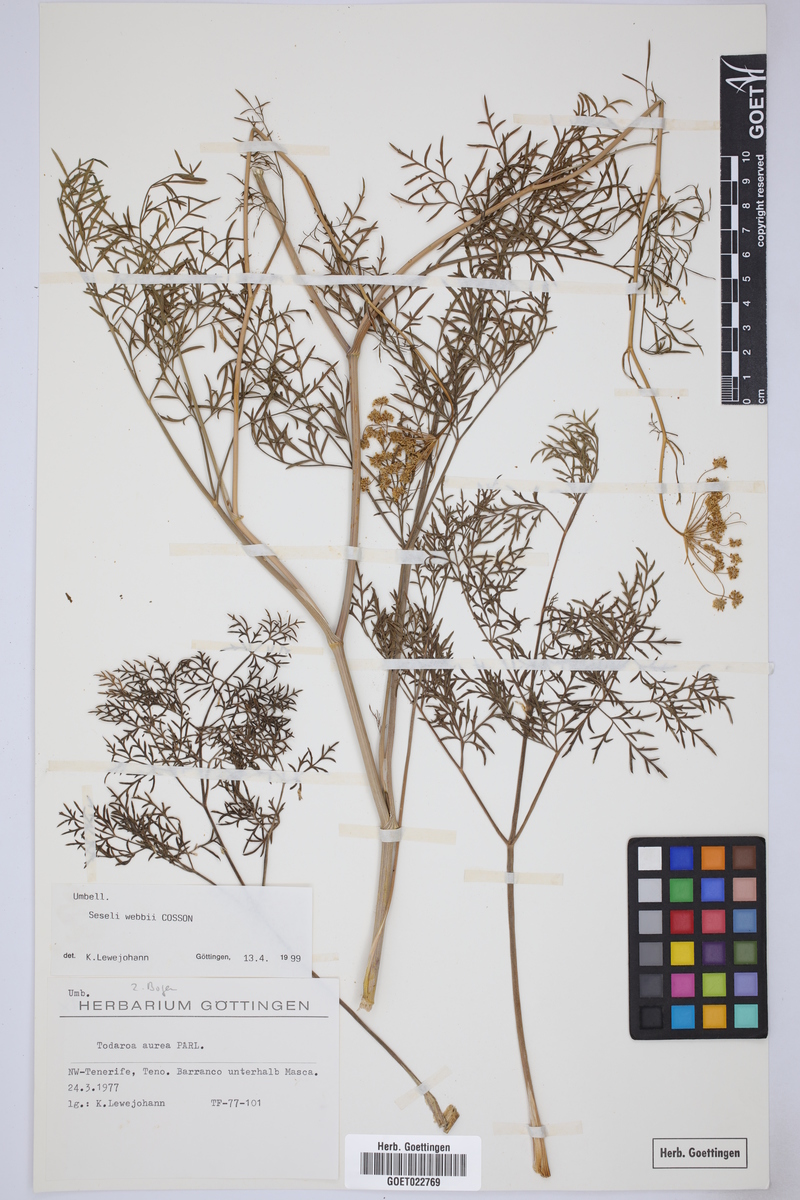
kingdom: Plantae
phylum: Tracheophyta
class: Magnoliopsida
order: Apiales
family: Apiaceae
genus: Rutheopsis
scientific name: Rutheopsis tortuosa
